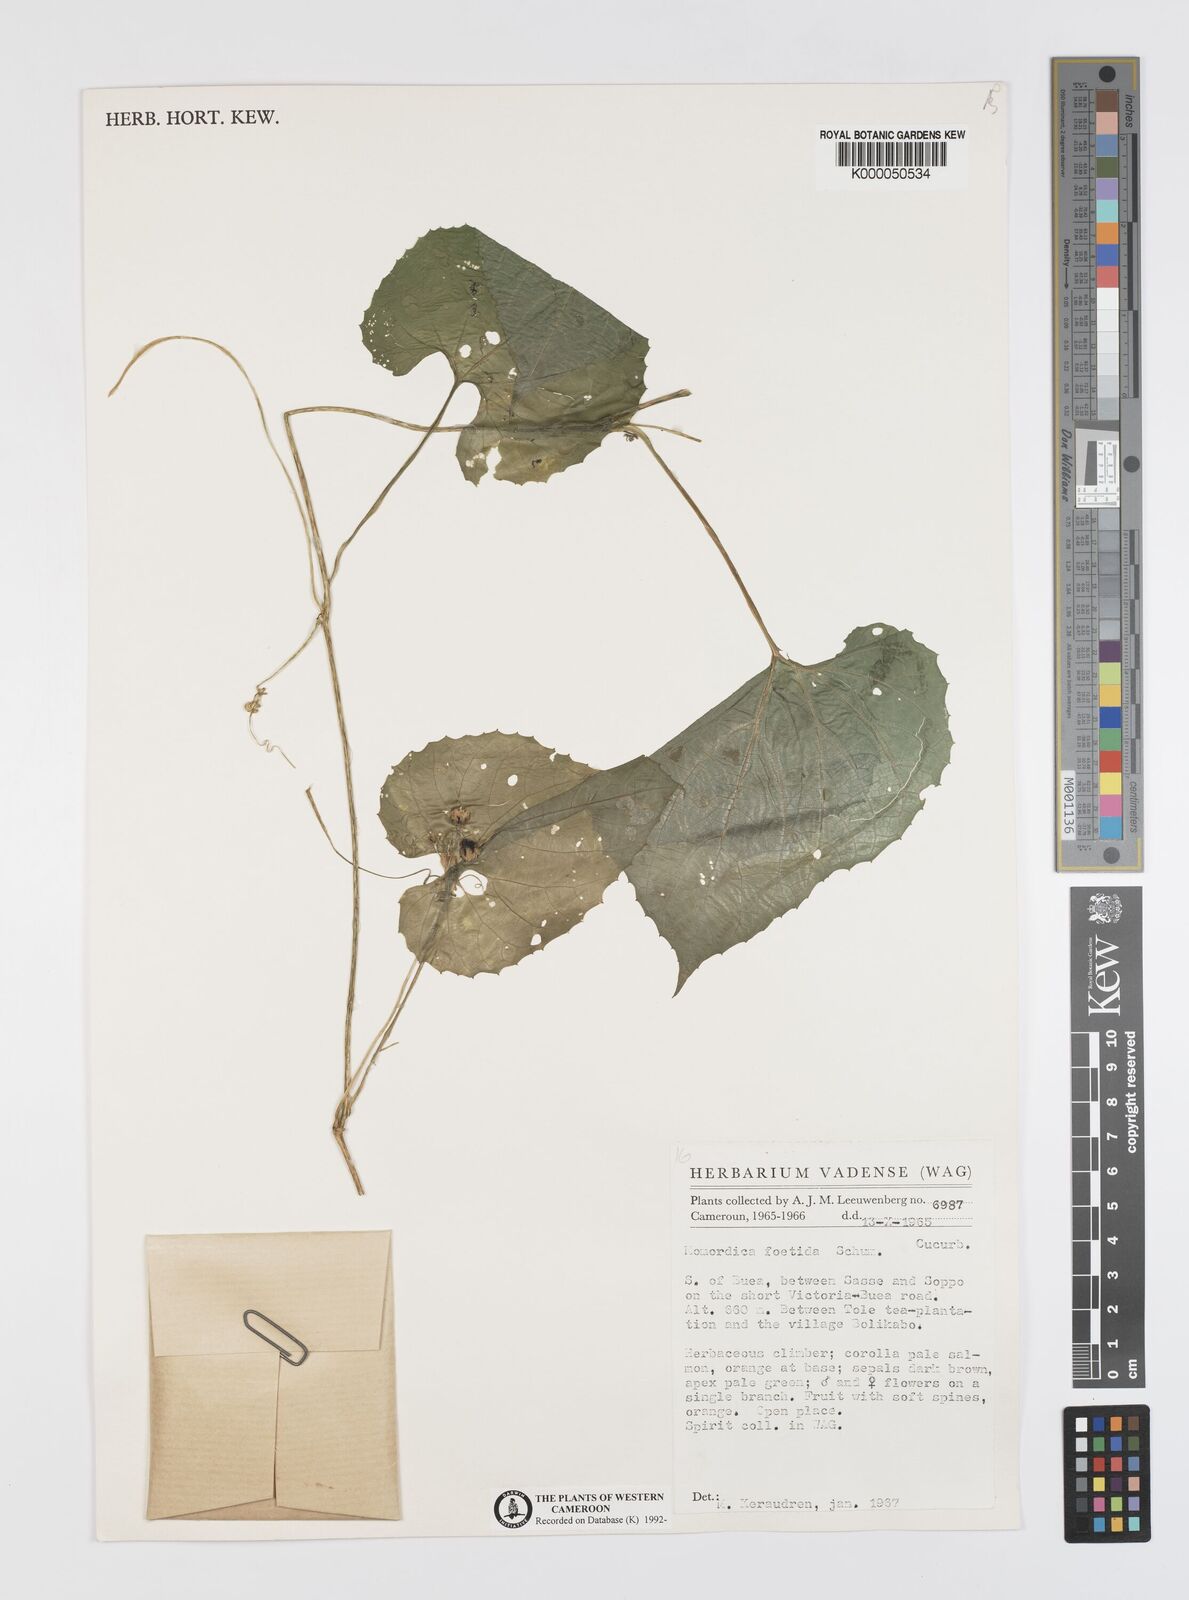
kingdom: Plantae
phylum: Tracheophyta
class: Magnoliopsida
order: Cucurbitales
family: Cucurbitaceae
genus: Momordica
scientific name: Momordica foetida
